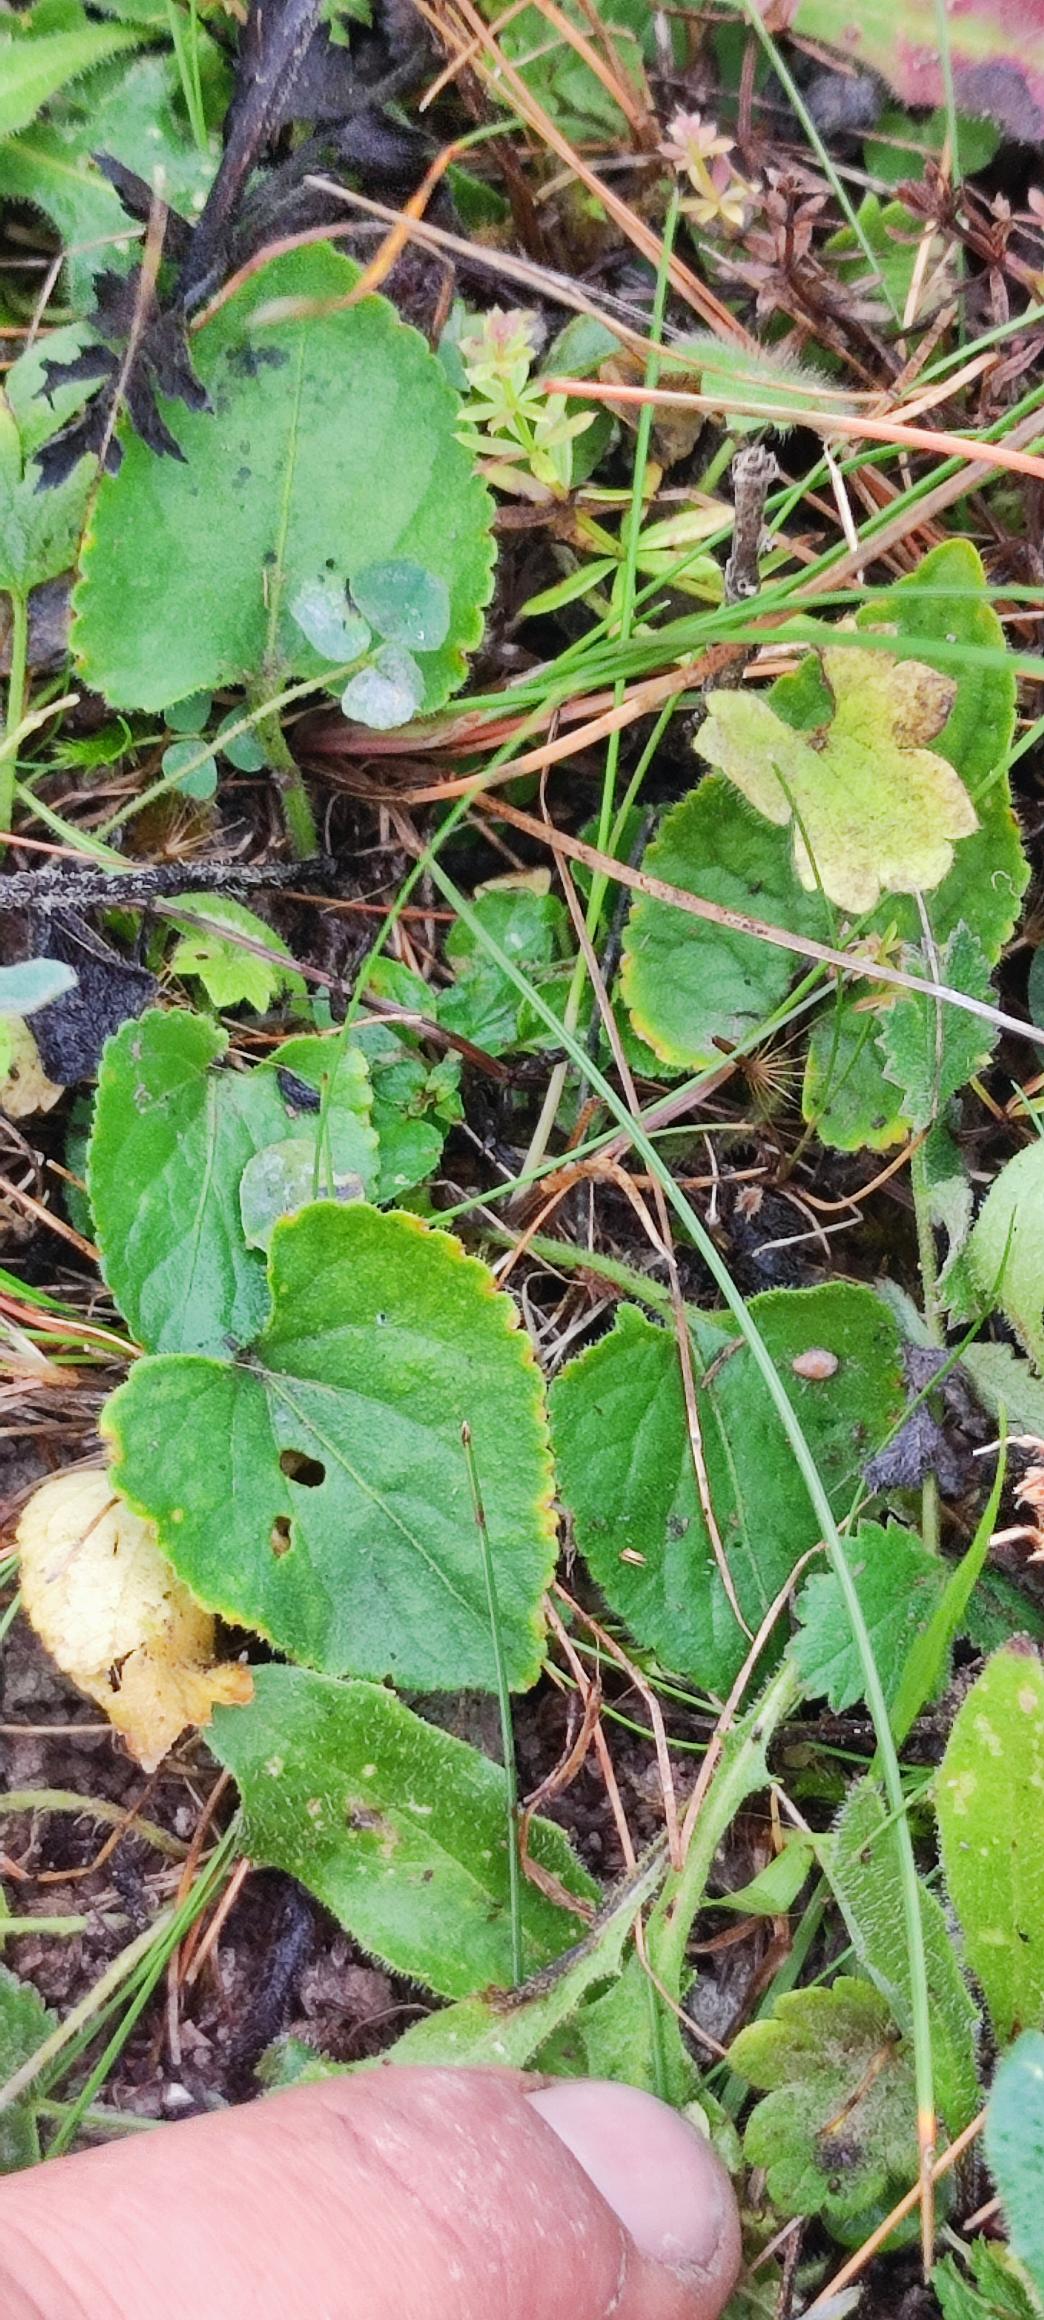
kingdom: Plantae
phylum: Tracheophyta
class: Magnoliopsida
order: Malpighiales
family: Violaceae
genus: Viola
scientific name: Viola hirta
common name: Håret viol
